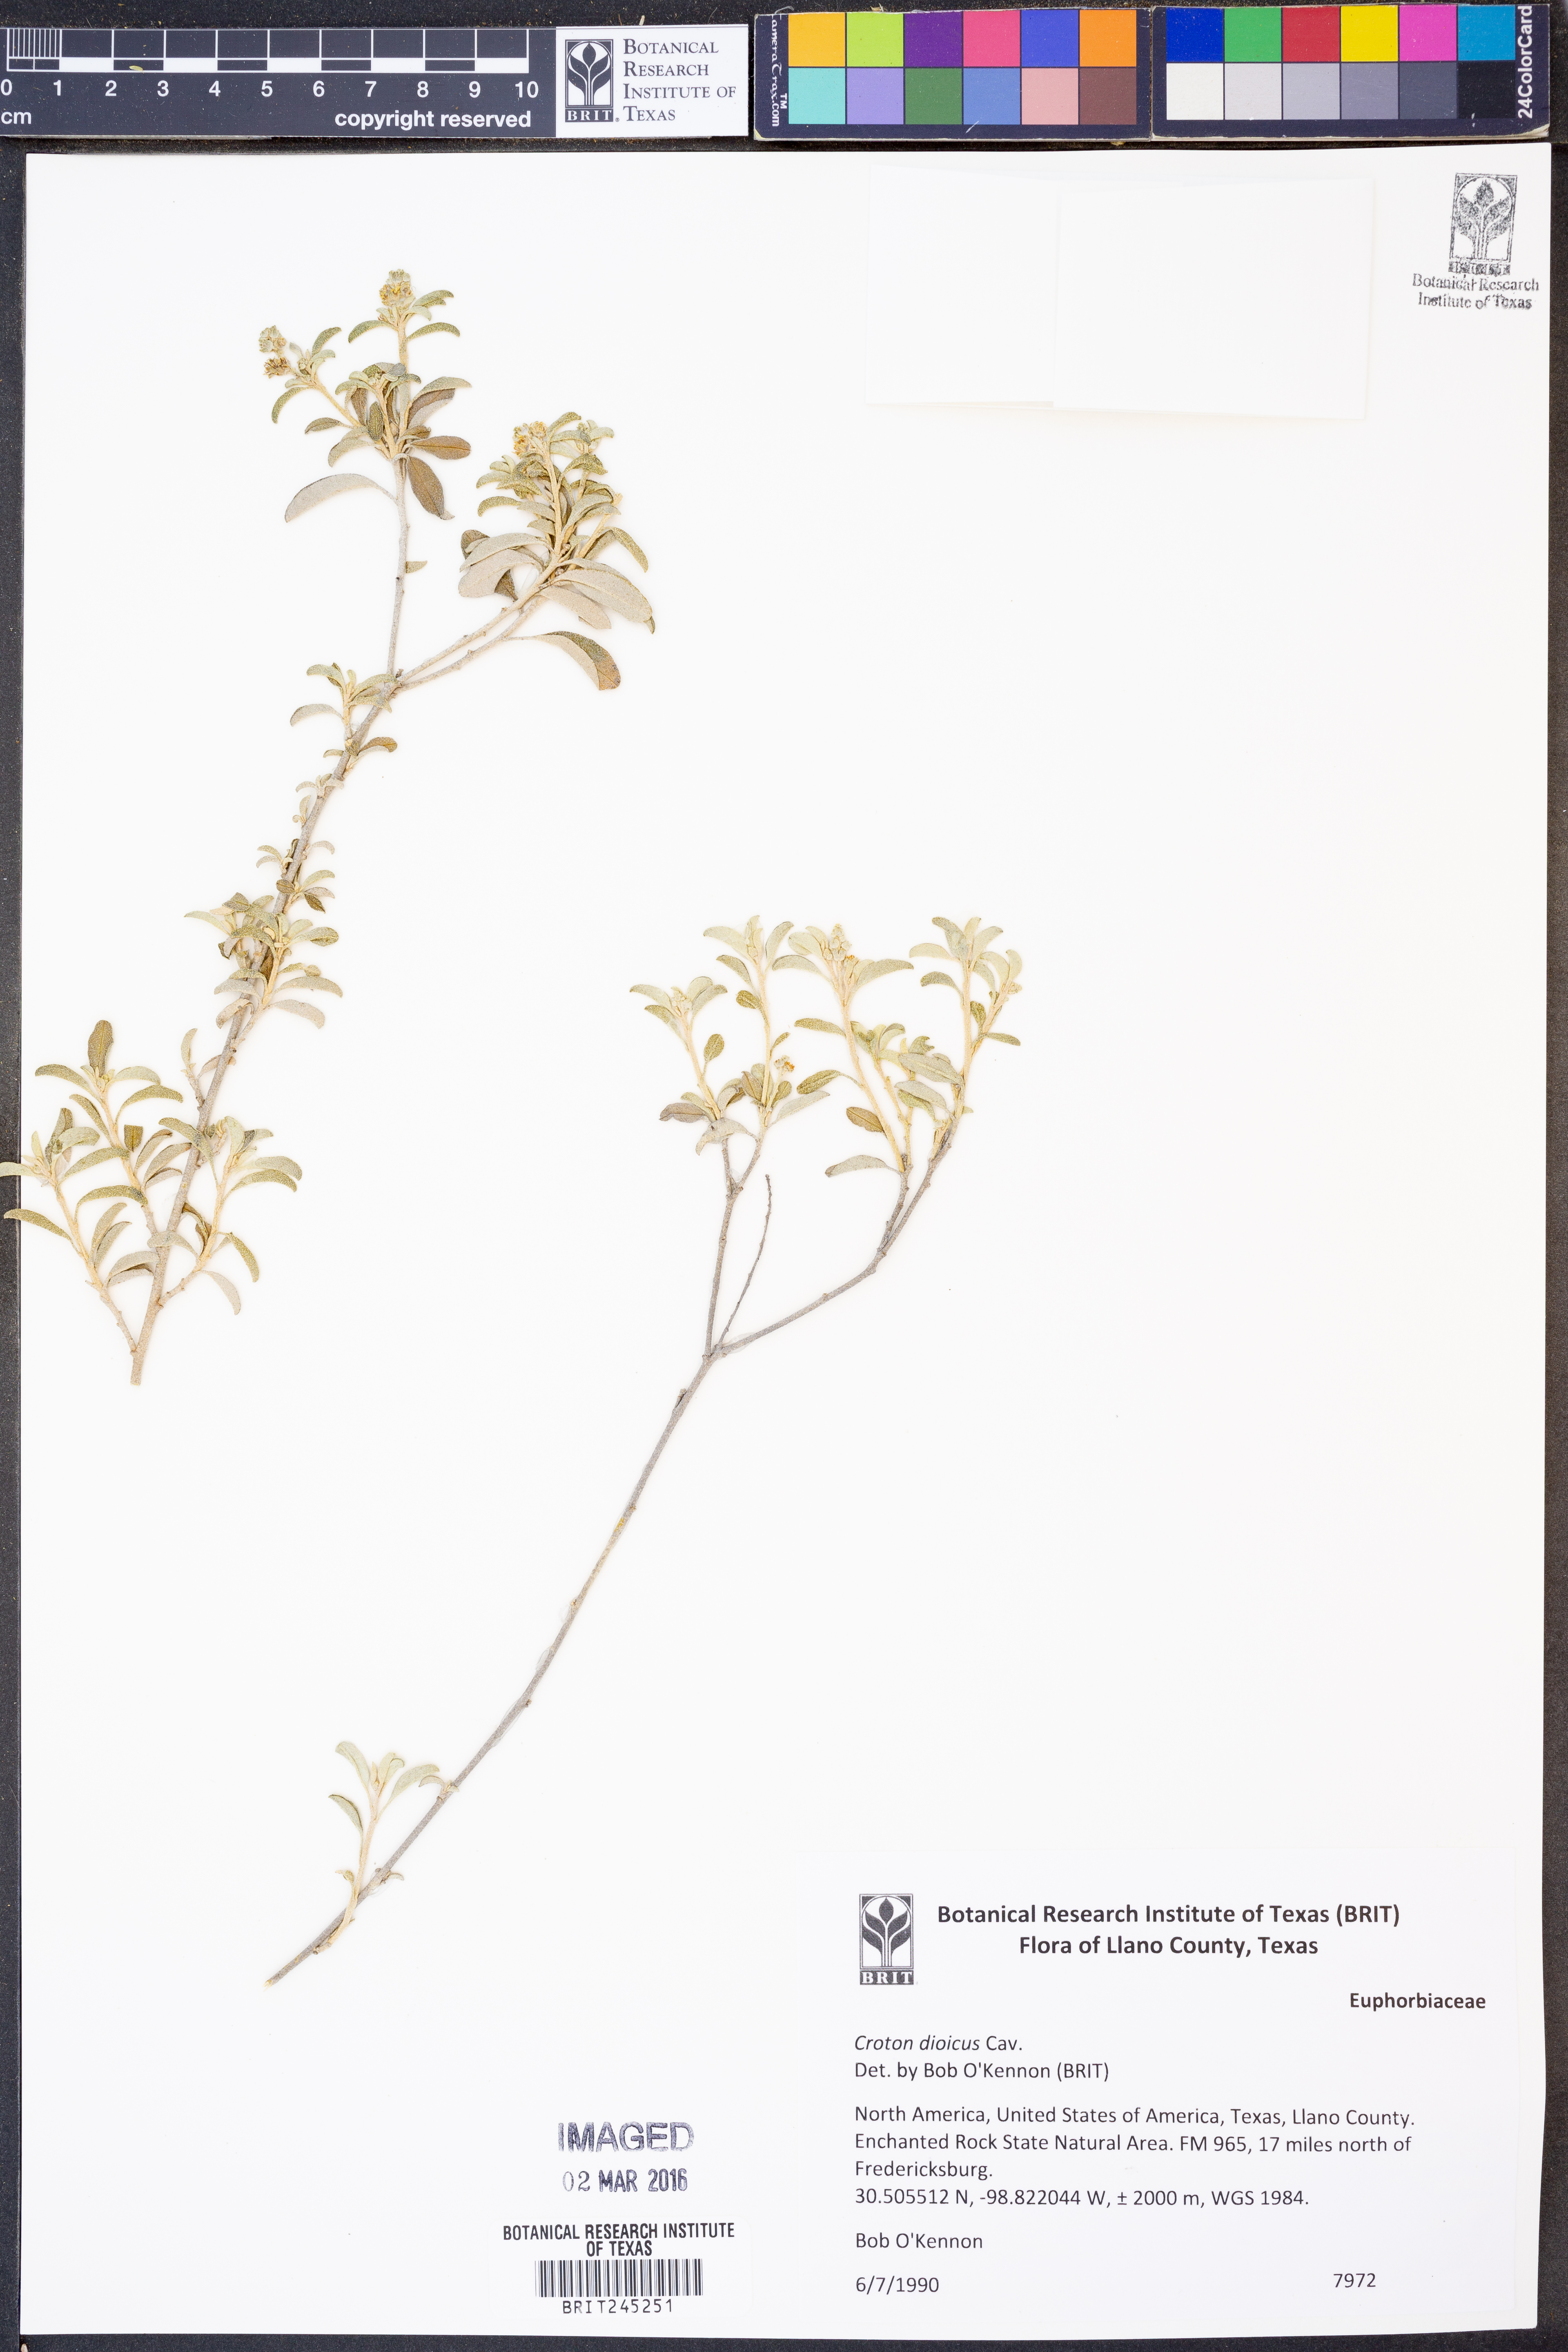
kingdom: Plantae
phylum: Tracheophyta
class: Magnoliopsida
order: Malpighiales
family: Euphorbiaceae
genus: Croton
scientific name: Croton dioicus
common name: Grassland croton
